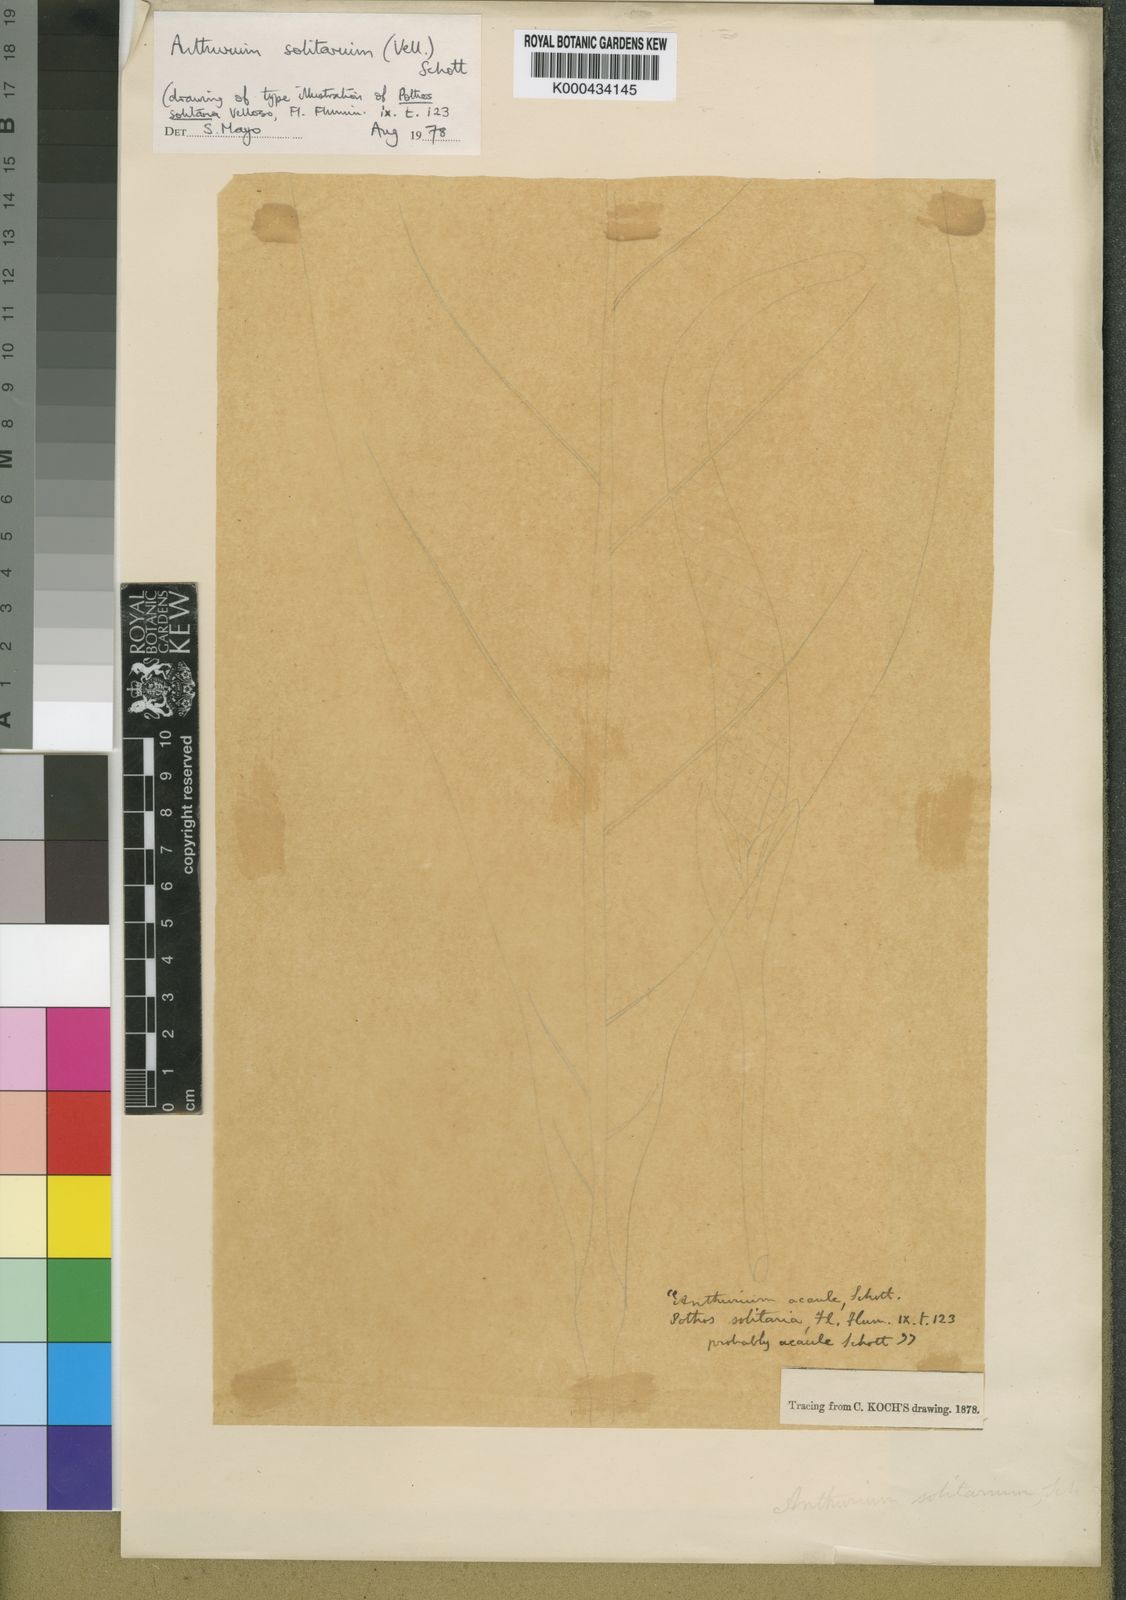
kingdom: Plantae
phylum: Tracheophyta
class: Liliopsida
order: Alismatales
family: Araceae
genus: Anthurium
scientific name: Anthurium solitarium
